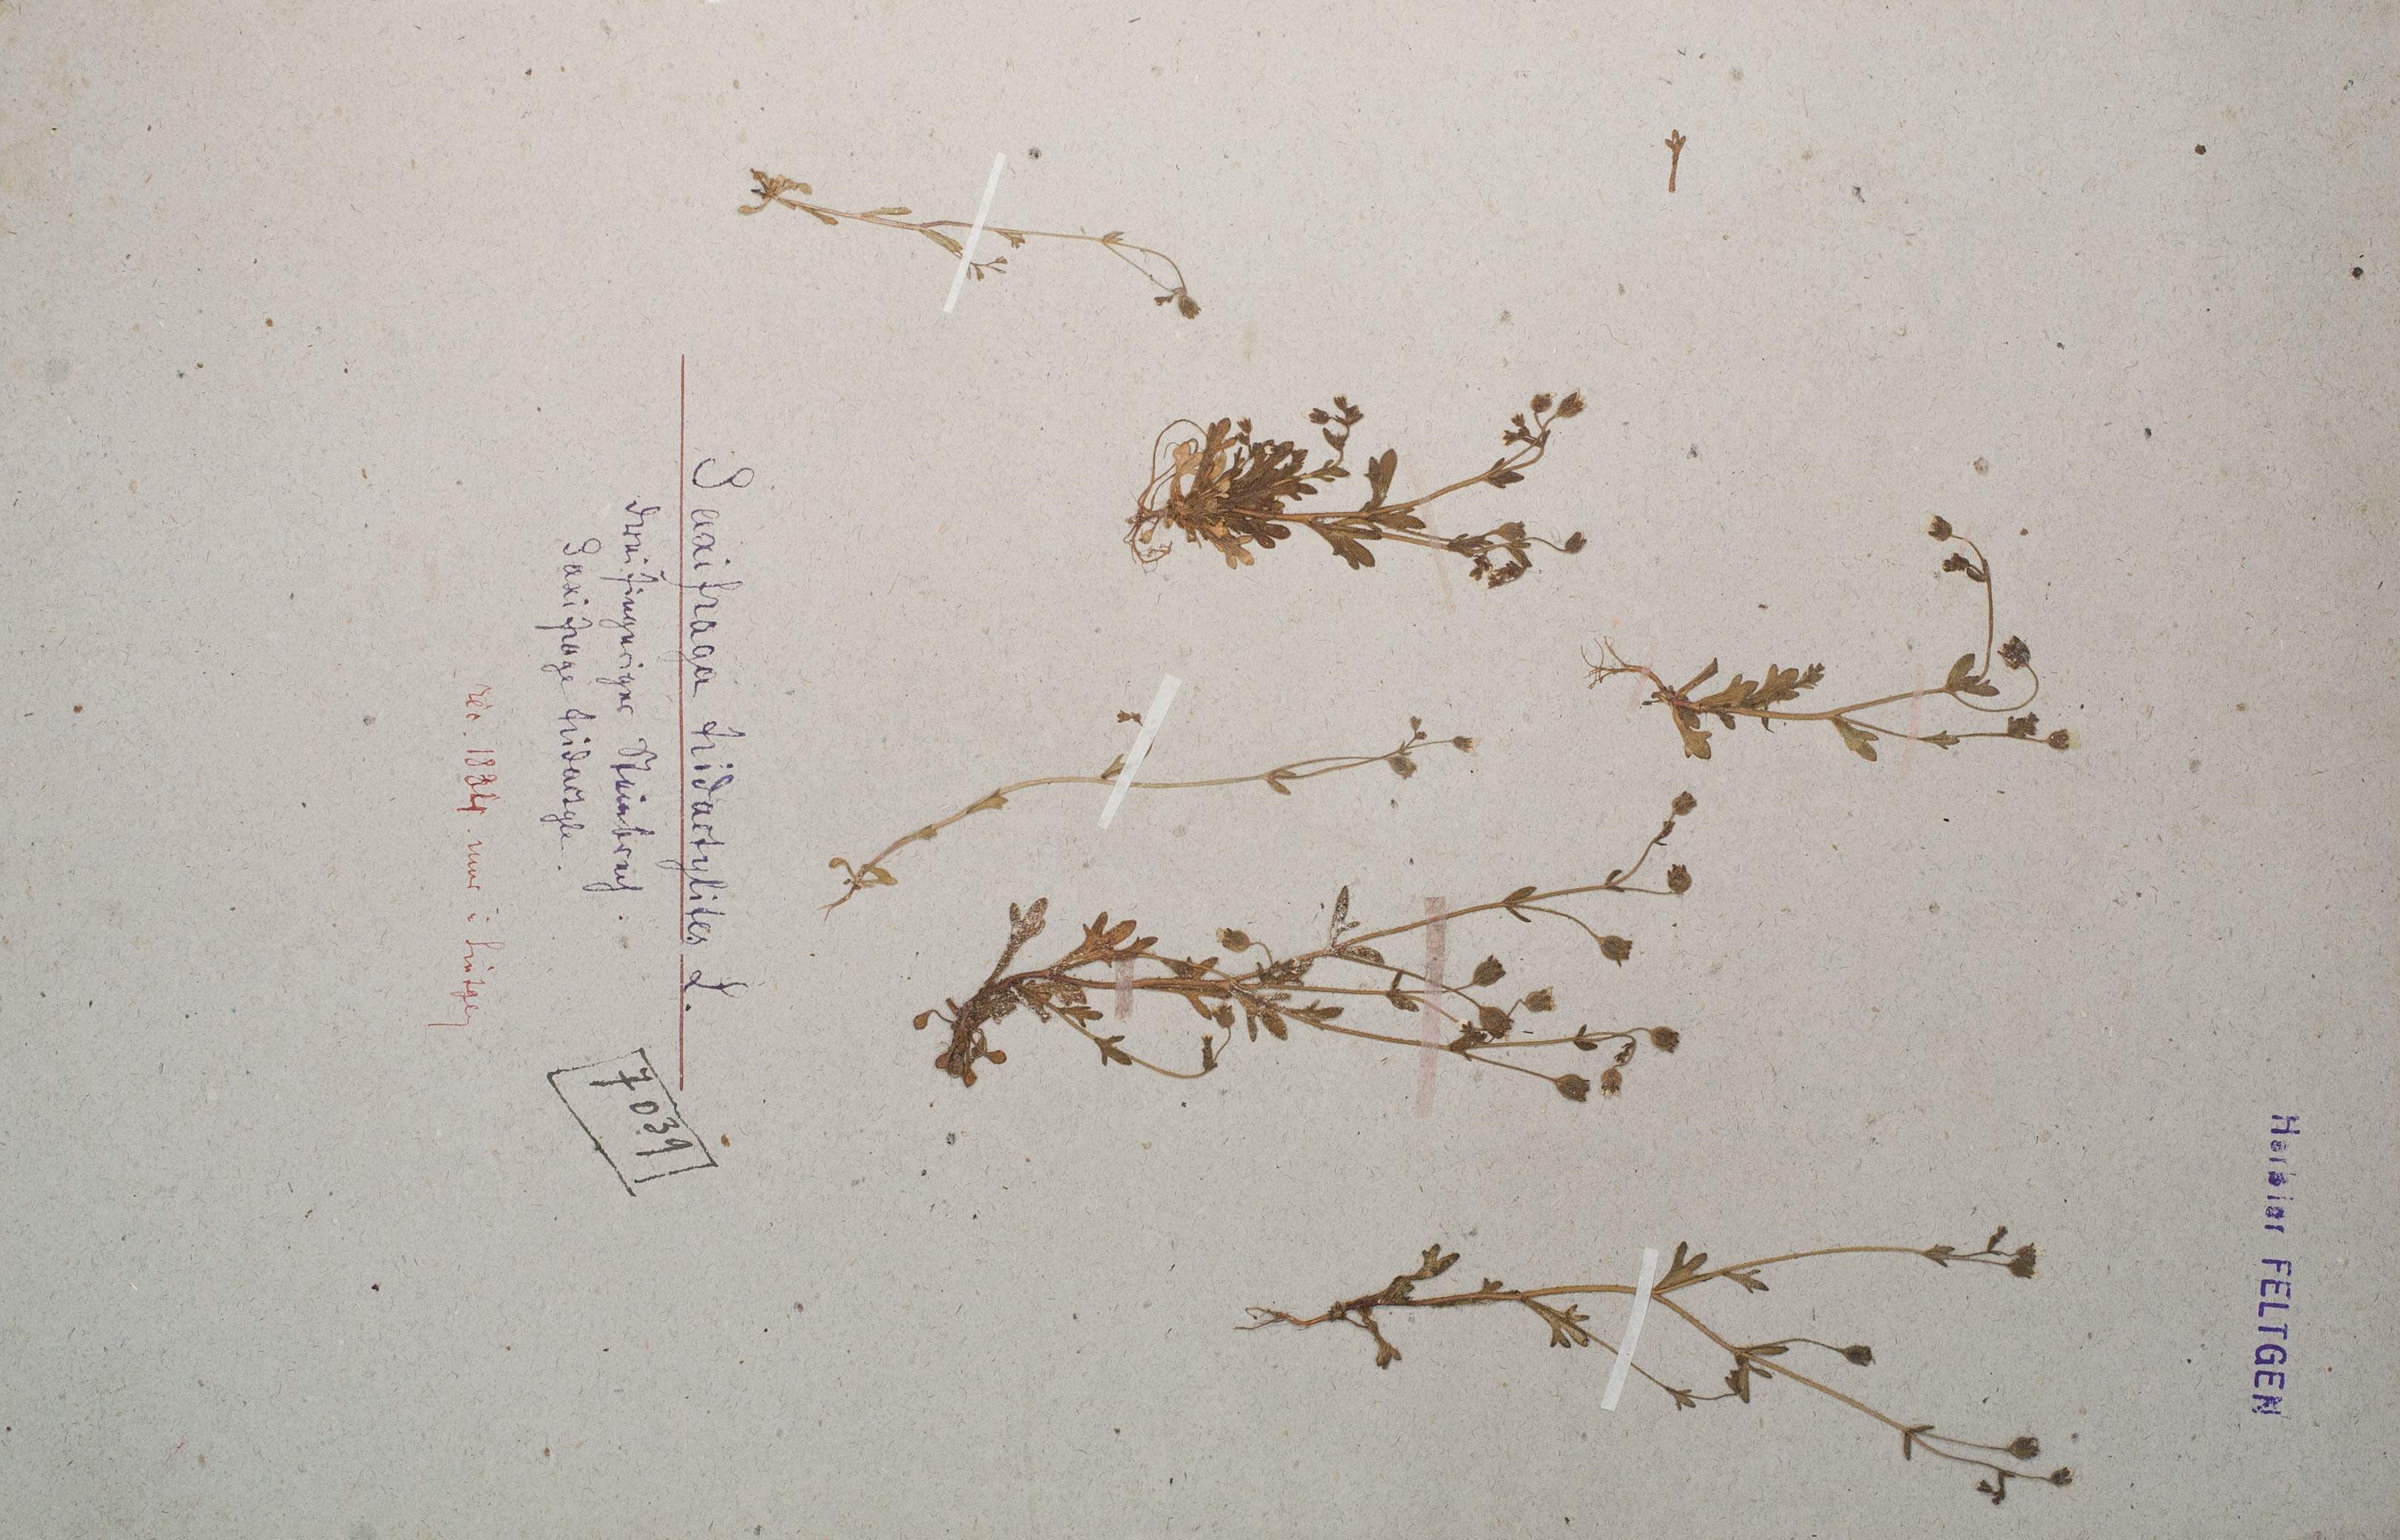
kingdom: Plantae
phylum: Tracheophyta
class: Magnoliopsida
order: Saxifragales
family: Saxifragaceae
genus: Saxifraga
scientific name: Saxifraga tridactylites
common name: Rue-leaved saxifrage
